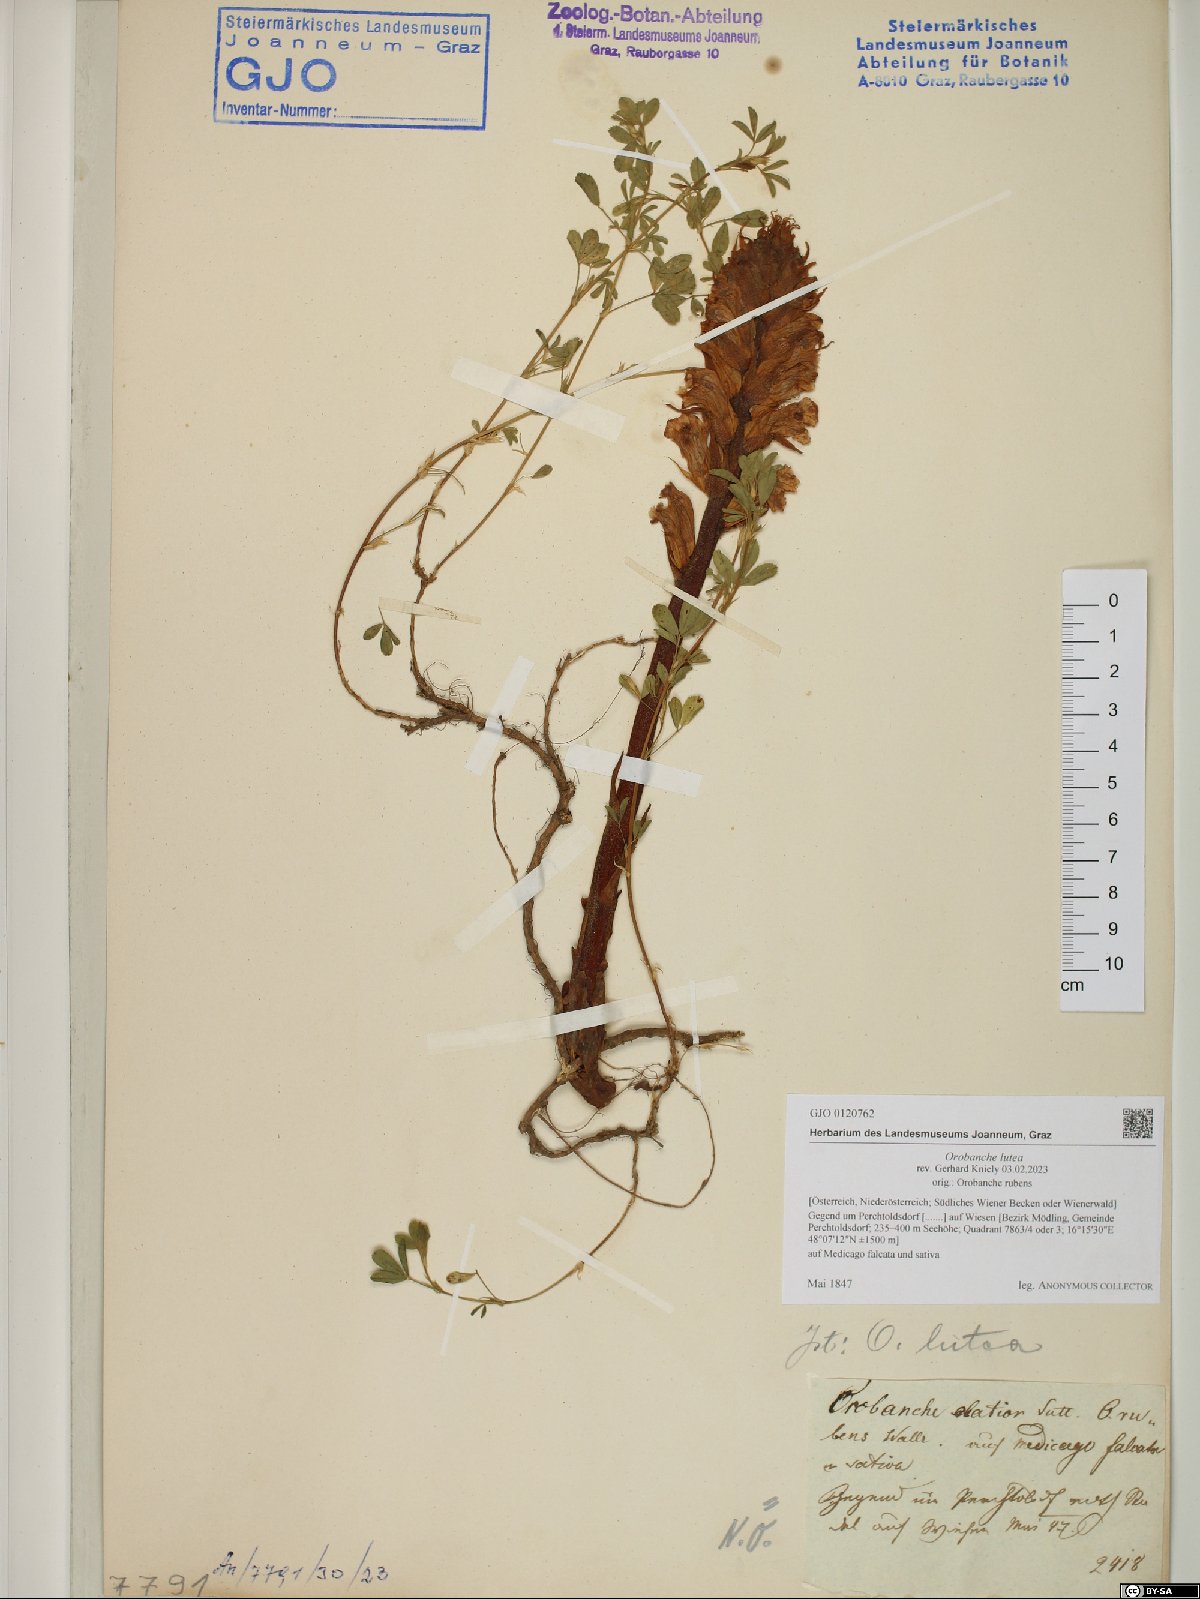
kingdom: Plantae
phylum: Tracheophyta
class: Magnoliopsida
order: Lamiales
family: Orobanchaceae
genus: Orobanche
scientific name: Orobanche lutea
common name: Yellow broomrape
